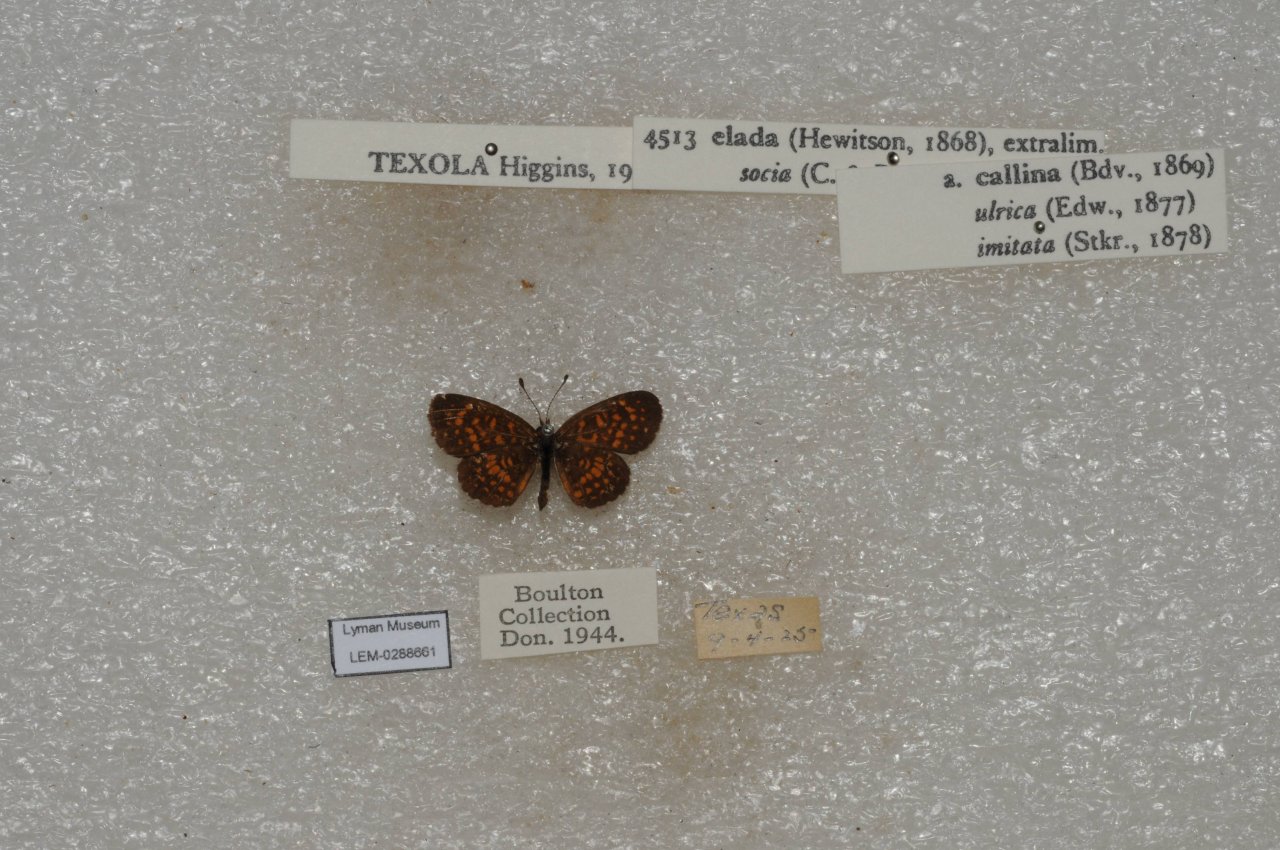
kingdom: Animalia
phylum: Arthropoda
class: Insecta
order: Lepidoptera
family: Nymphalidae
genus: Texola
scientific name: Texola elada
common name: Elada Checkerspot
